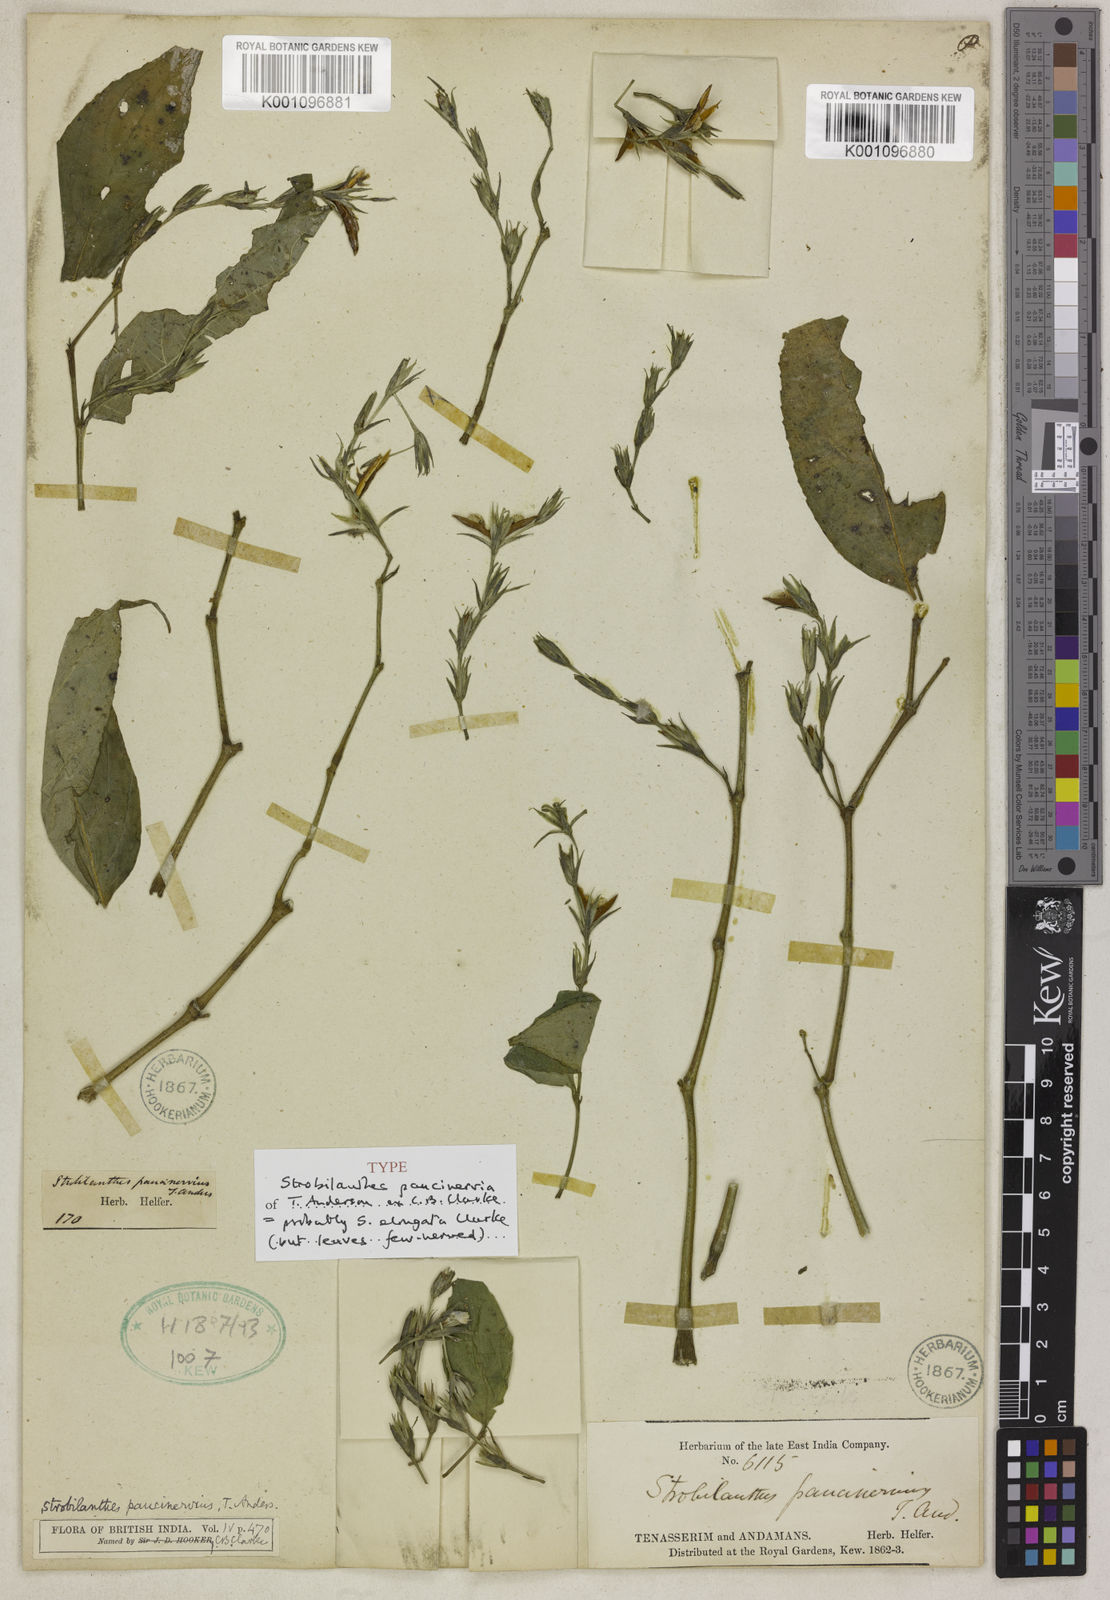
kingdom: Plantae
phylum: Tracheophyta
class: Magnoliopsida
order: Lamiales
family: Acanthaceae
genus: Strobilanthes
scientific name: Strobilanthes elongata
